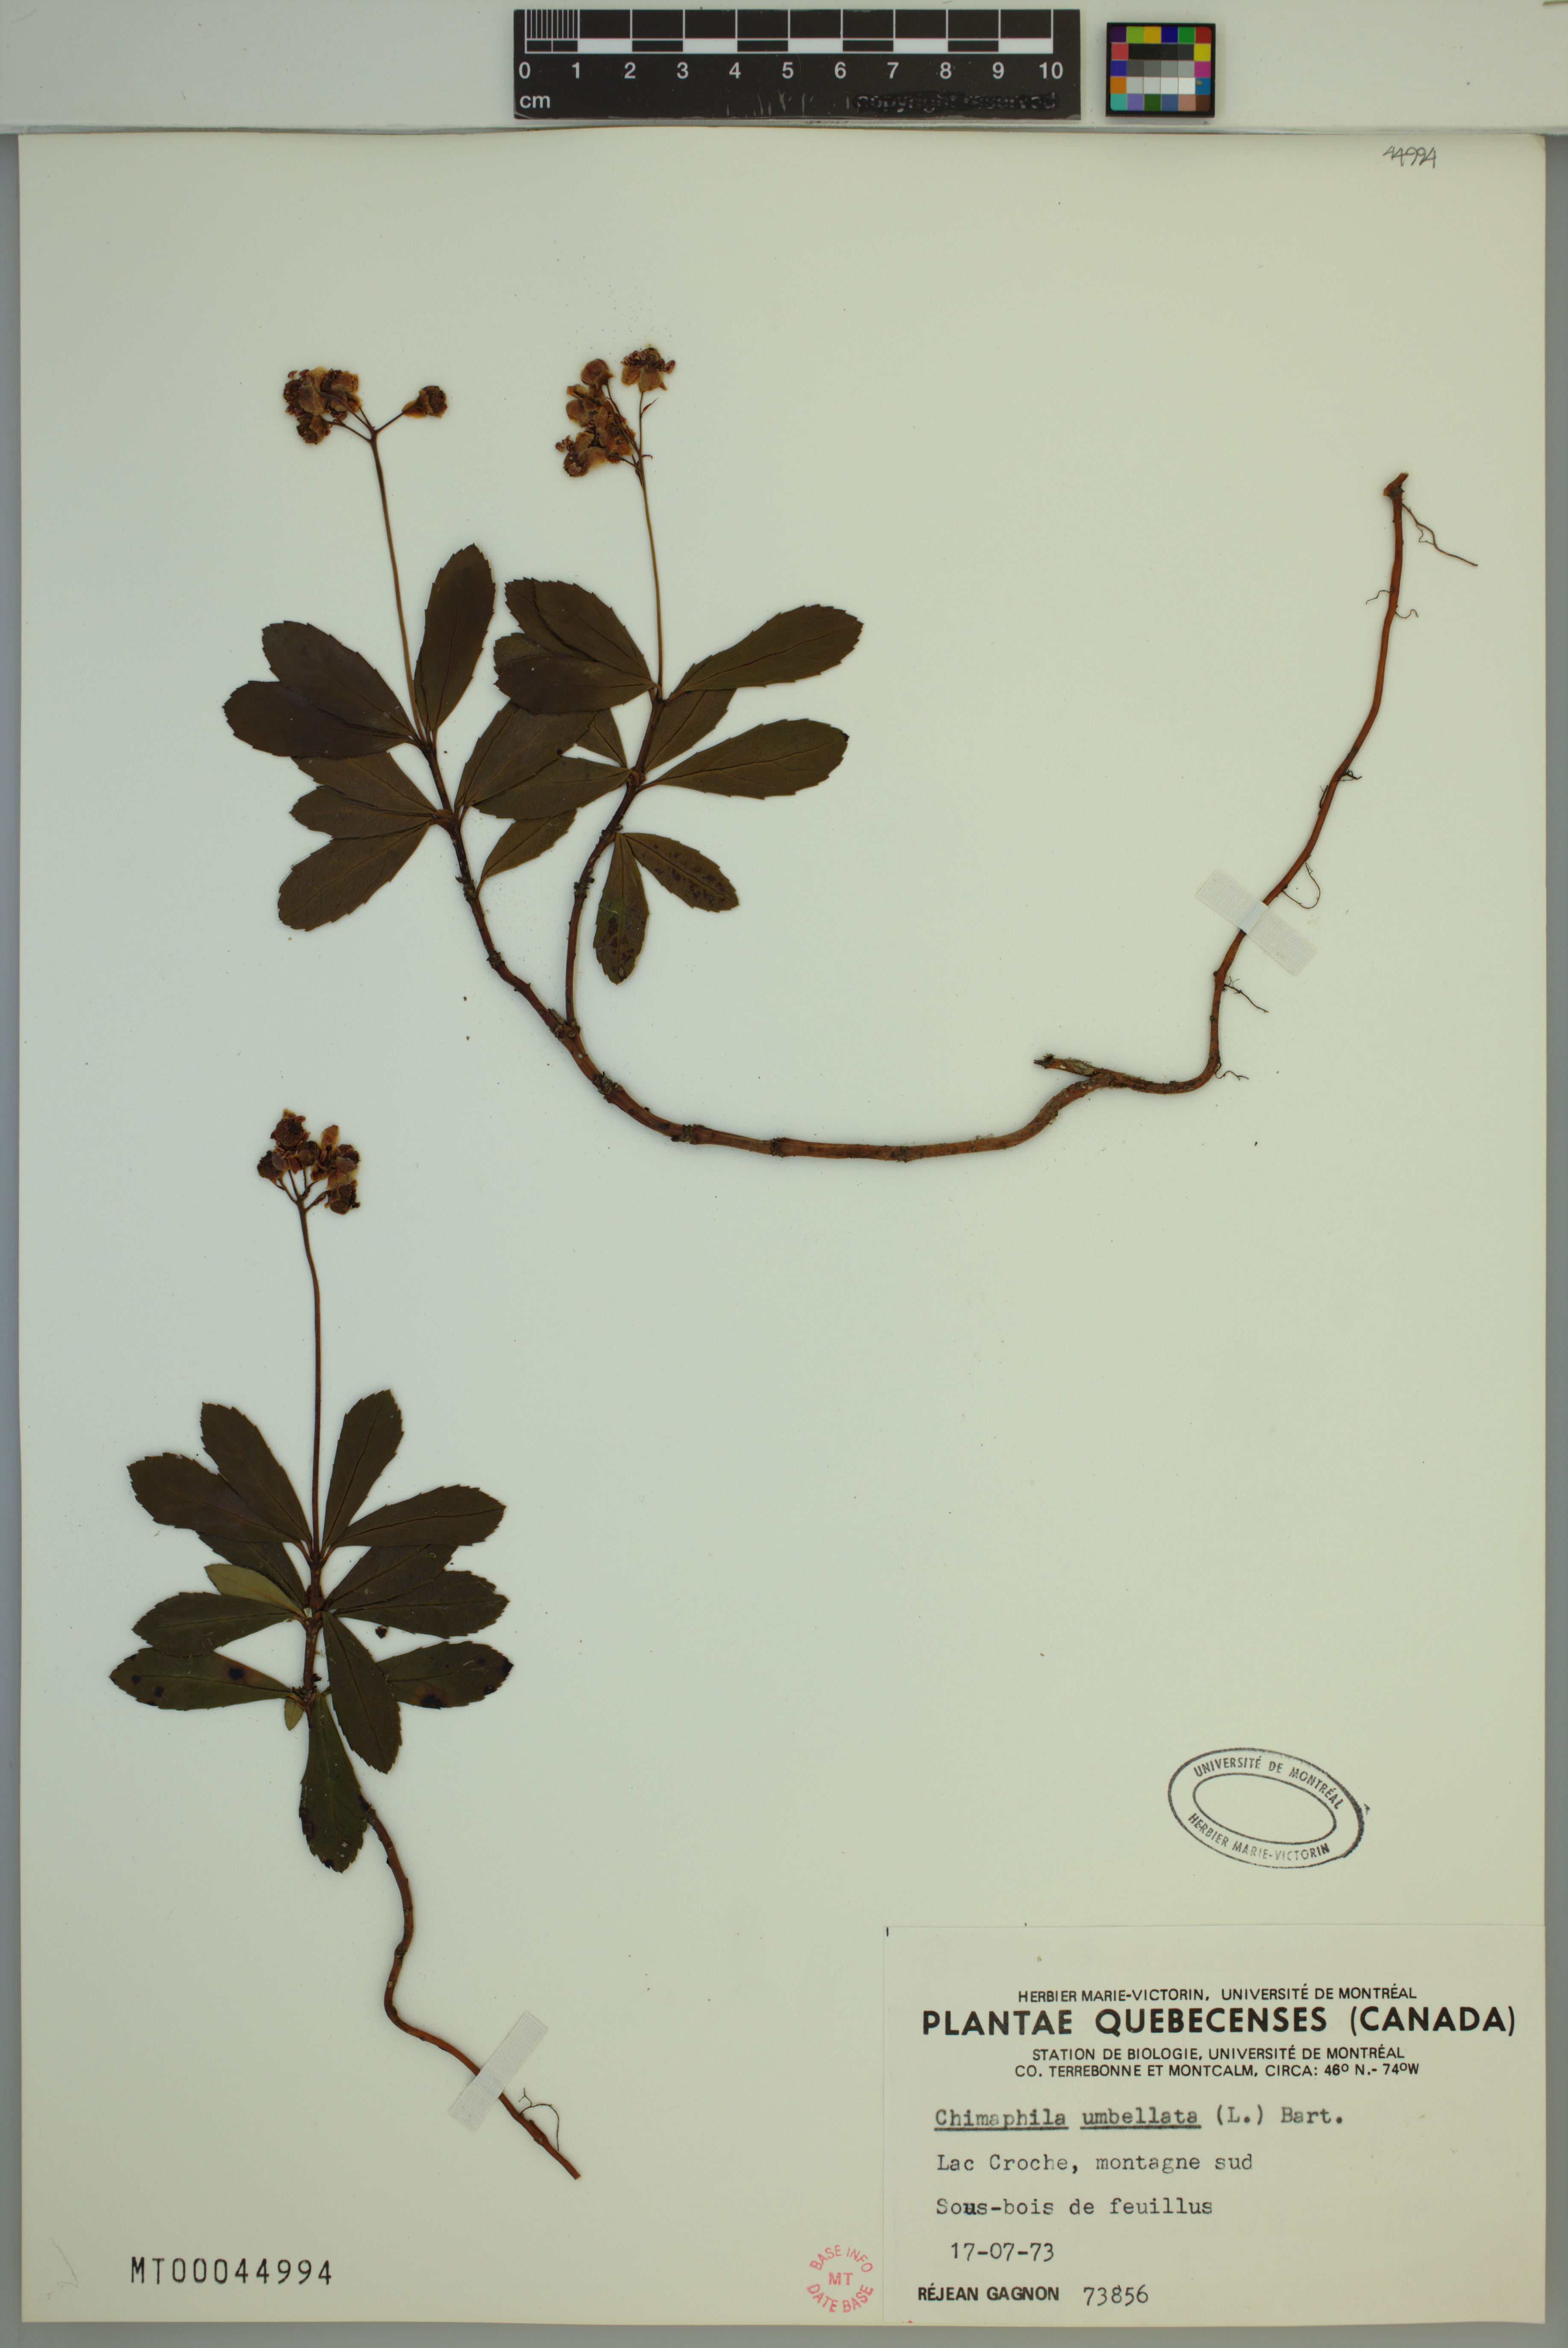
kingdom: Plantae
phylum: Tracheophyta
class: Magnoliopsida
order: Ericales
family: Ericaceae
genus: Chimaphila
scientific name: Chimaphila umbellata
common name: Pipsissewa
